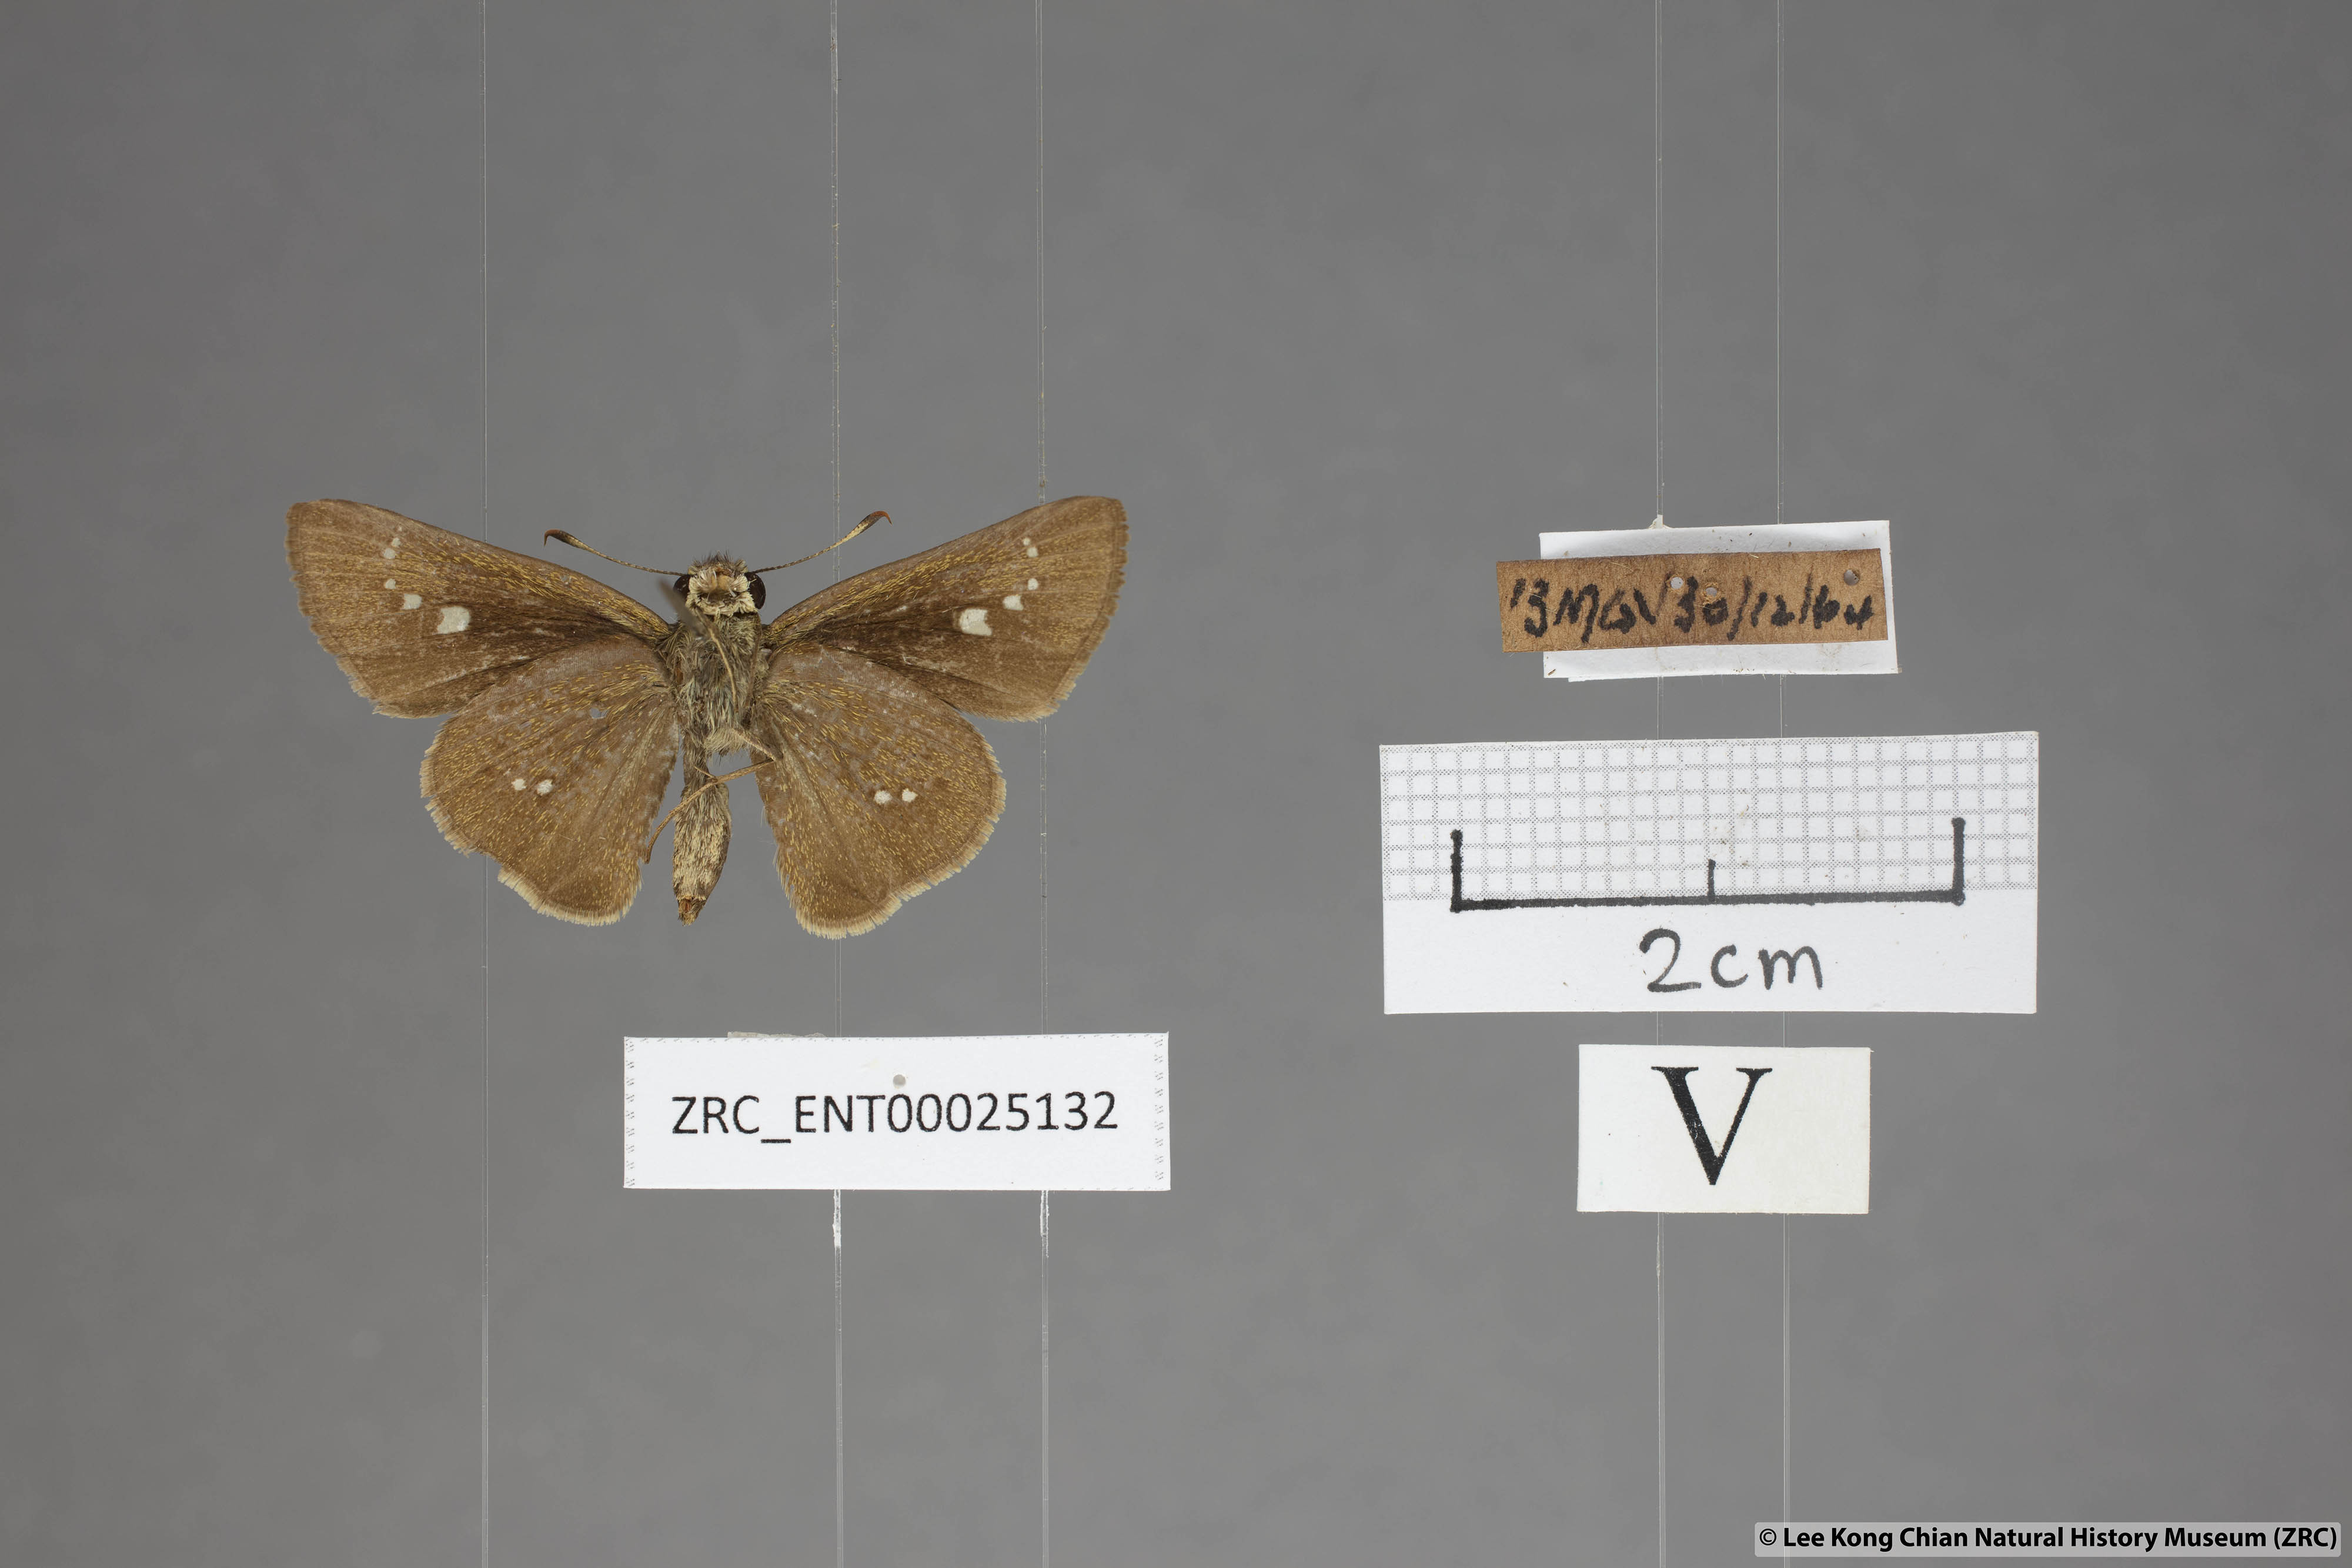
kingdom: Animalia
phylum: Arthropoda
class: Insecta
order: Lepidoptera
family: Hesperiidae
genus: Parnara
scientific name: Parnara naso
